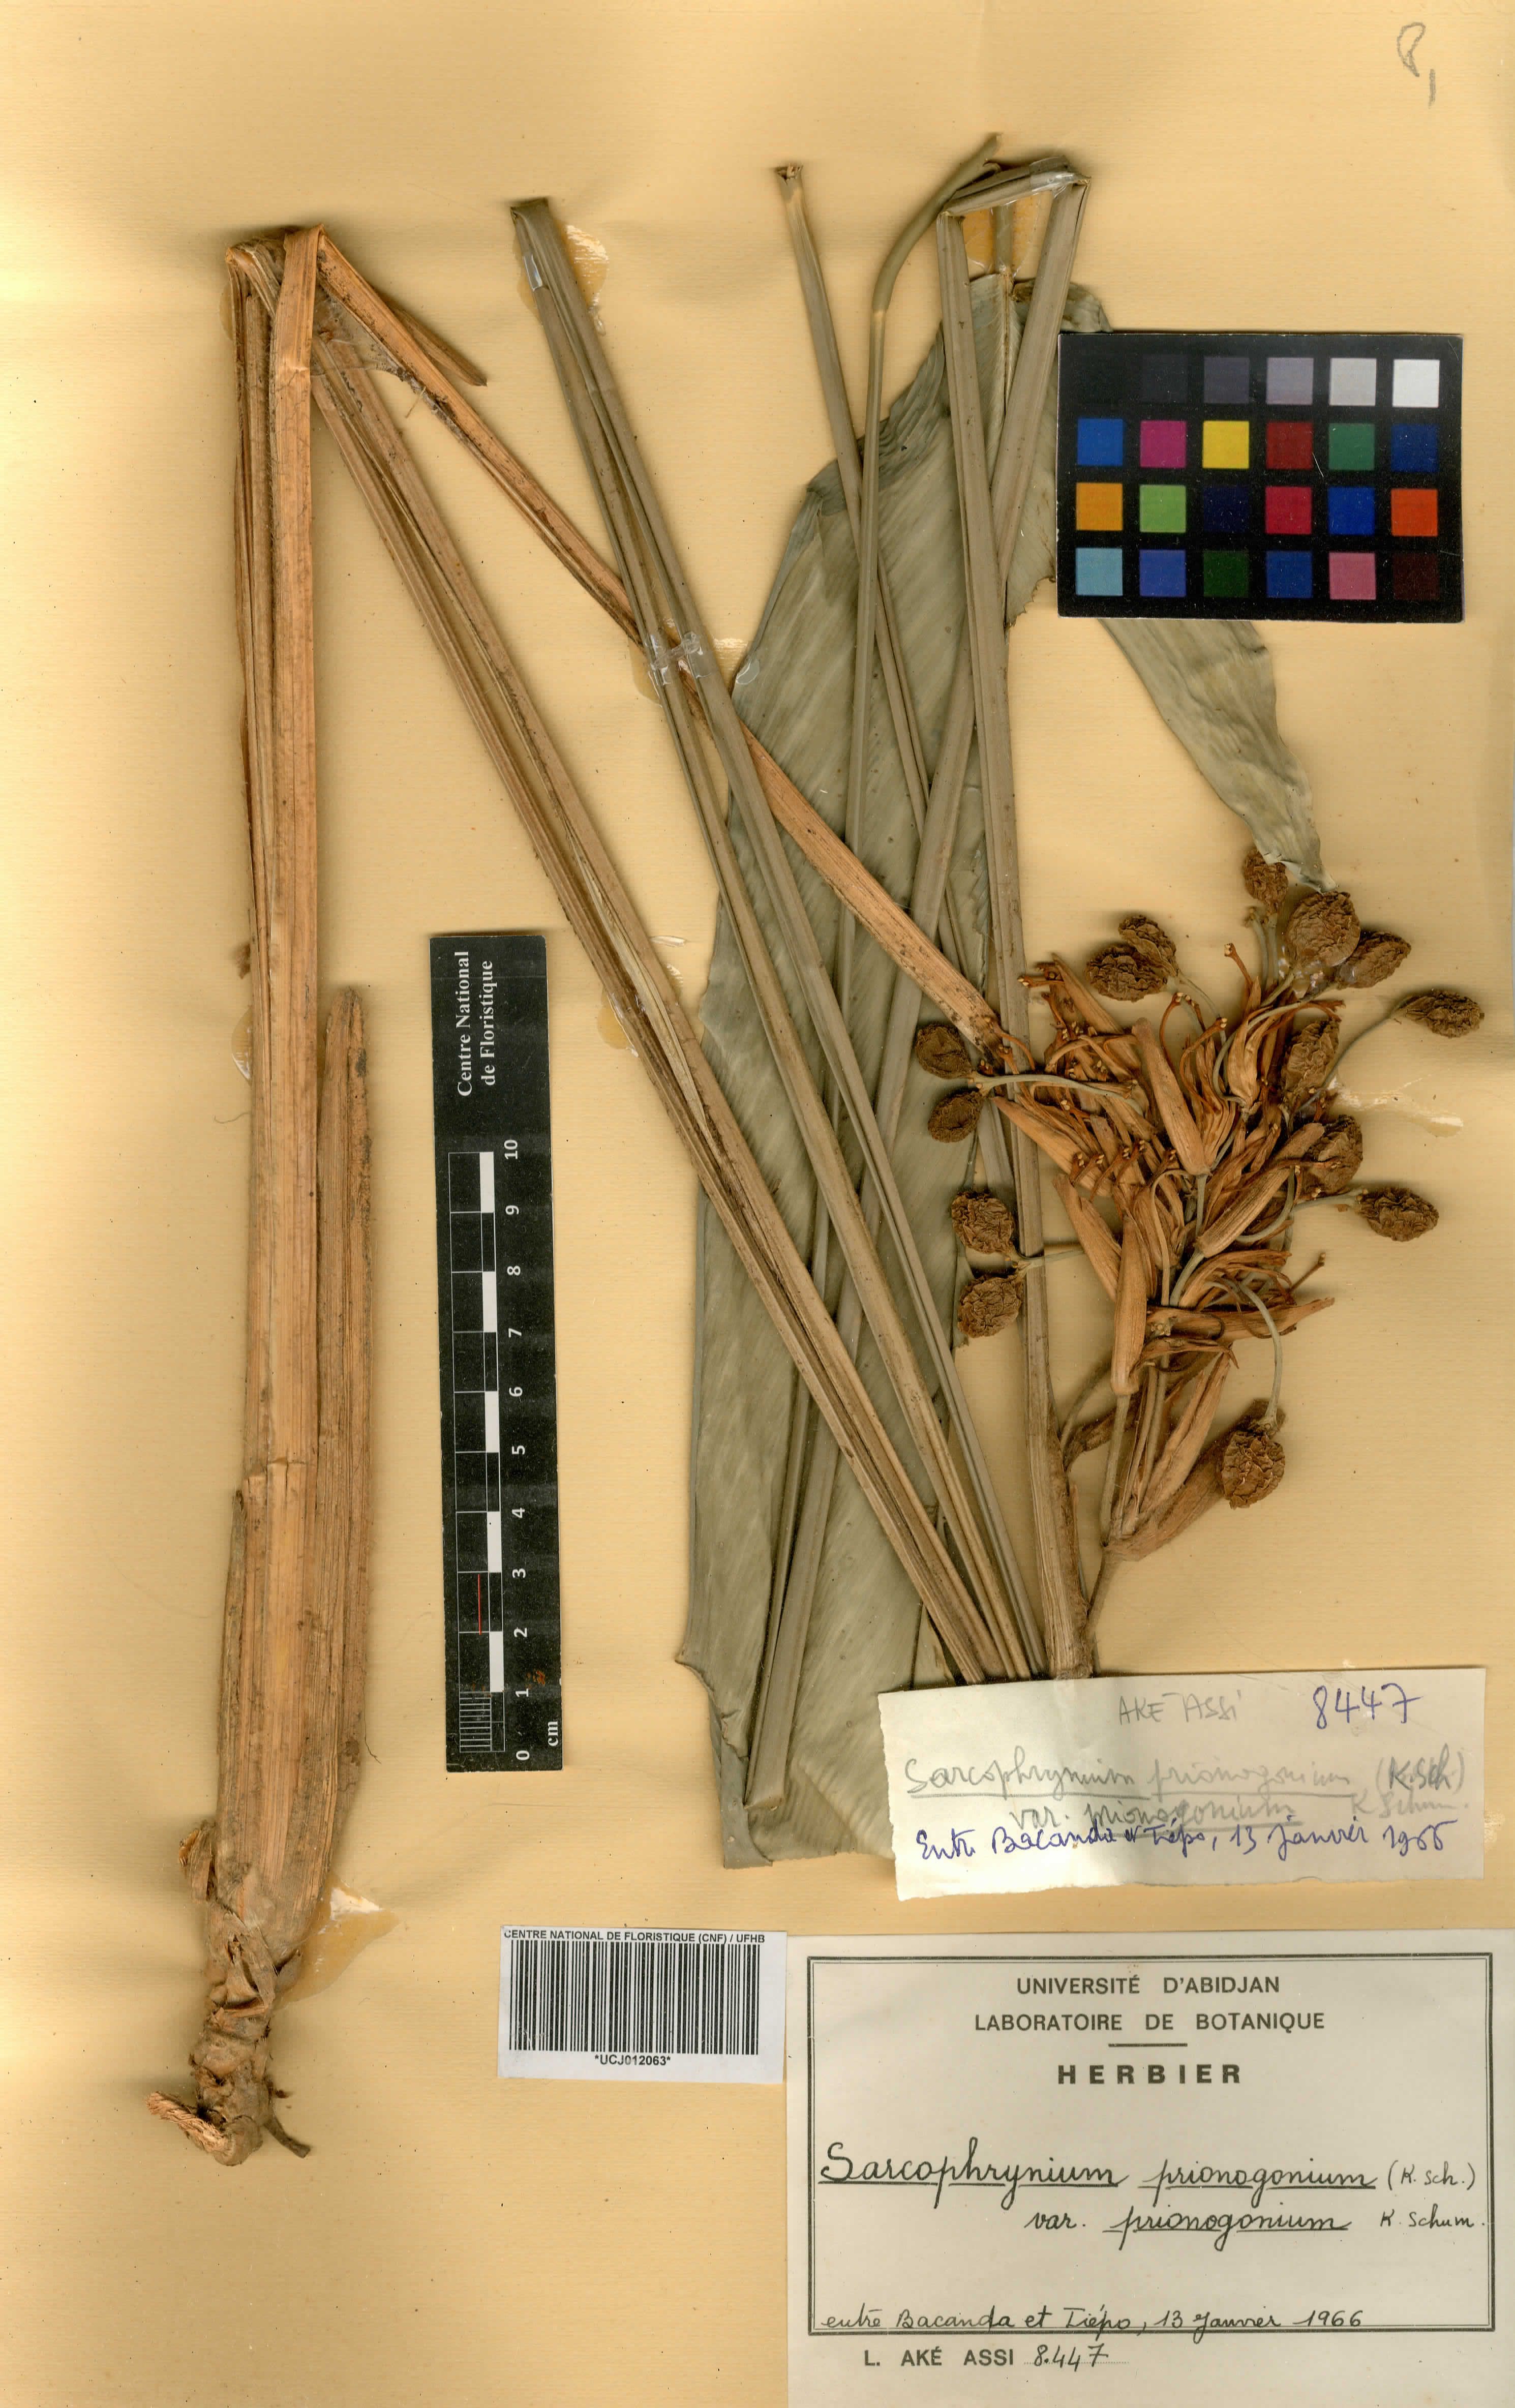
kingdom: Plantae
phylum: Tracheophyta
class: Liliopsida
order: Zingiberales
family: Marantaceae
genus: Sarcophrynium
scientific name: Sarcophrynium prionogonium
